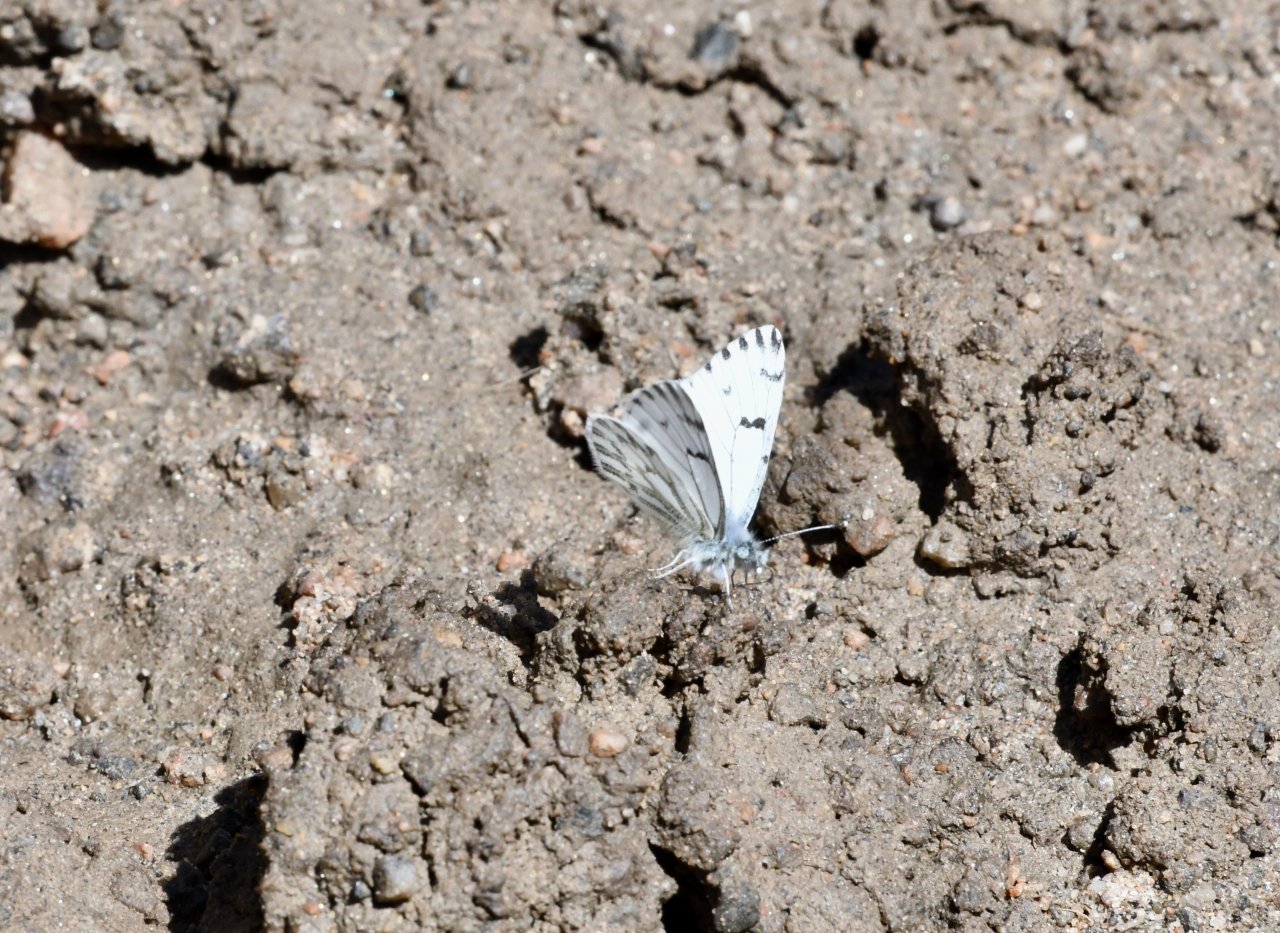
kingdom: Animalia
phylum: Arthropoda
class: Insecta
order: Lepidoptera
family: Pieridae
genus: Pontia
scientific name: Pontia sisymbrii
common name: Spring White
